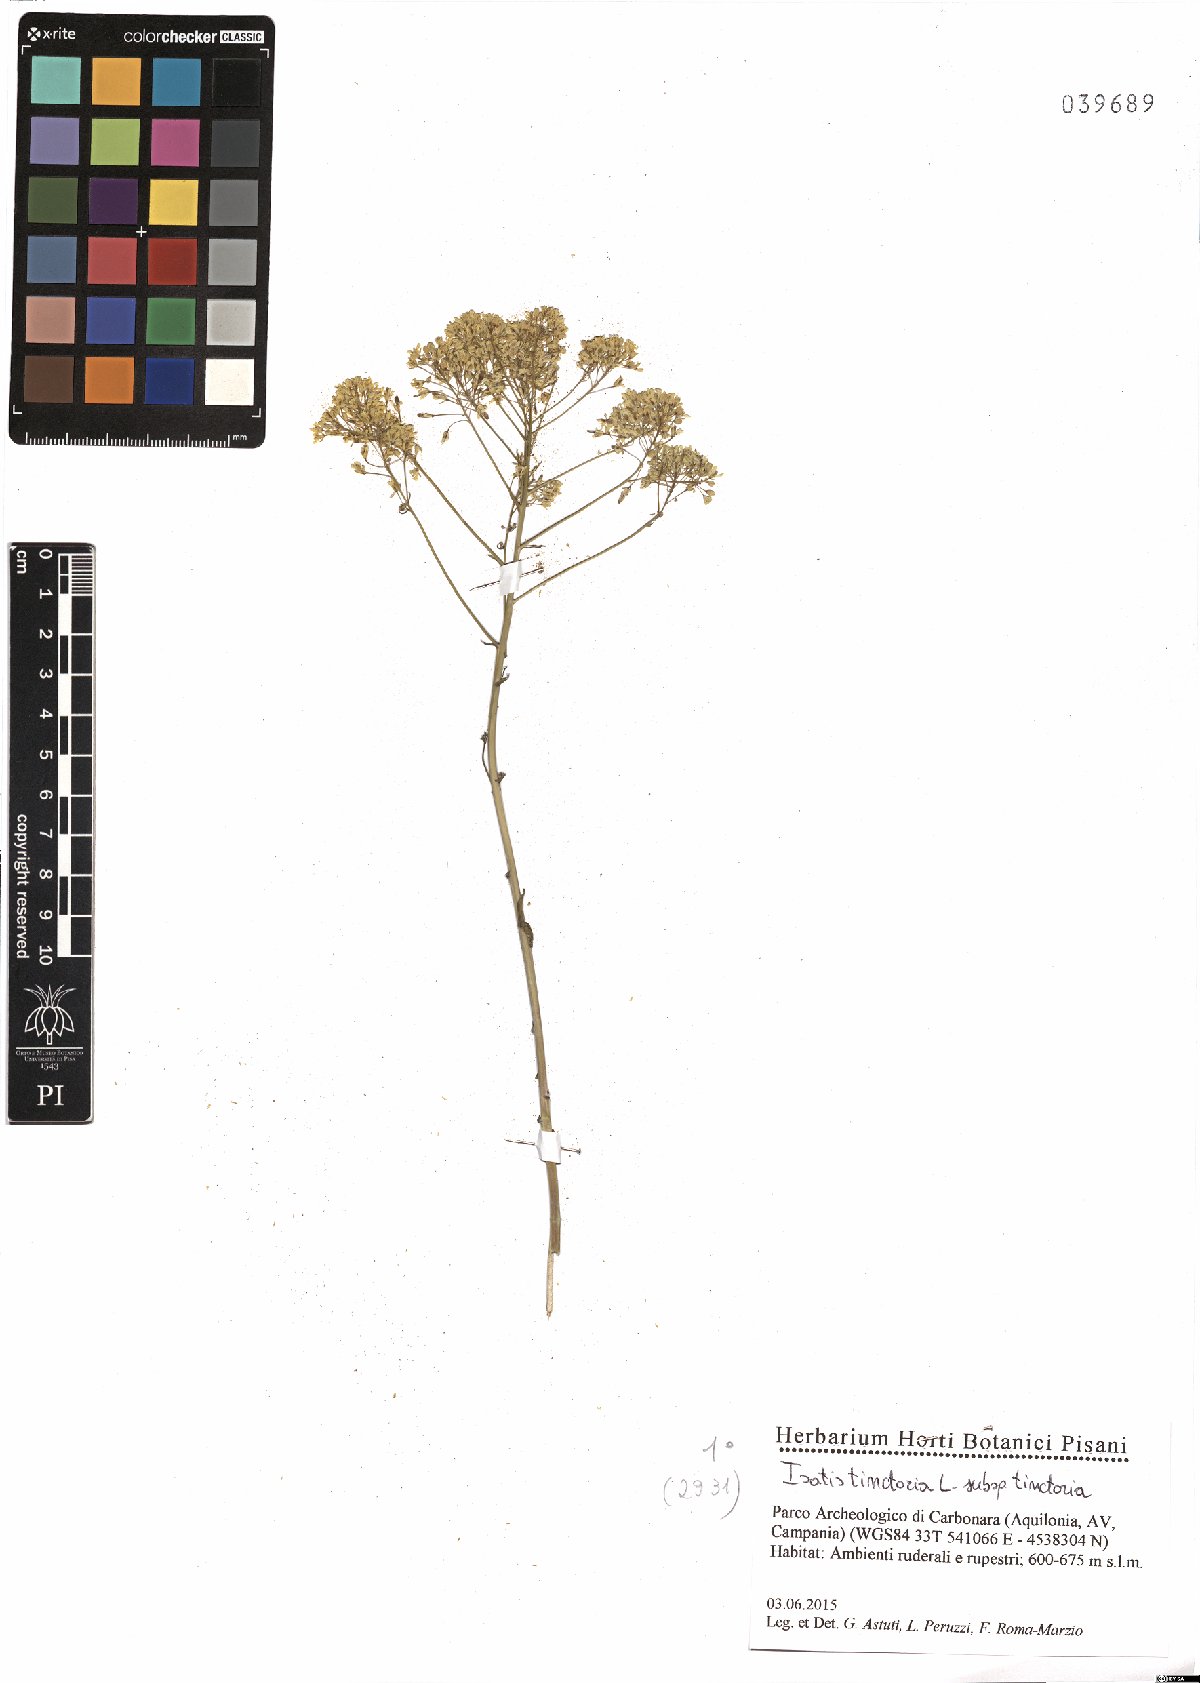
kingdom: Plantae
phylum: Tracheophyta
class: Magnoliopsida
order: Brassicales
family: Brassicaceae
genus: Isatis
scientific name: Isatis tinctoria
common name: Woad
